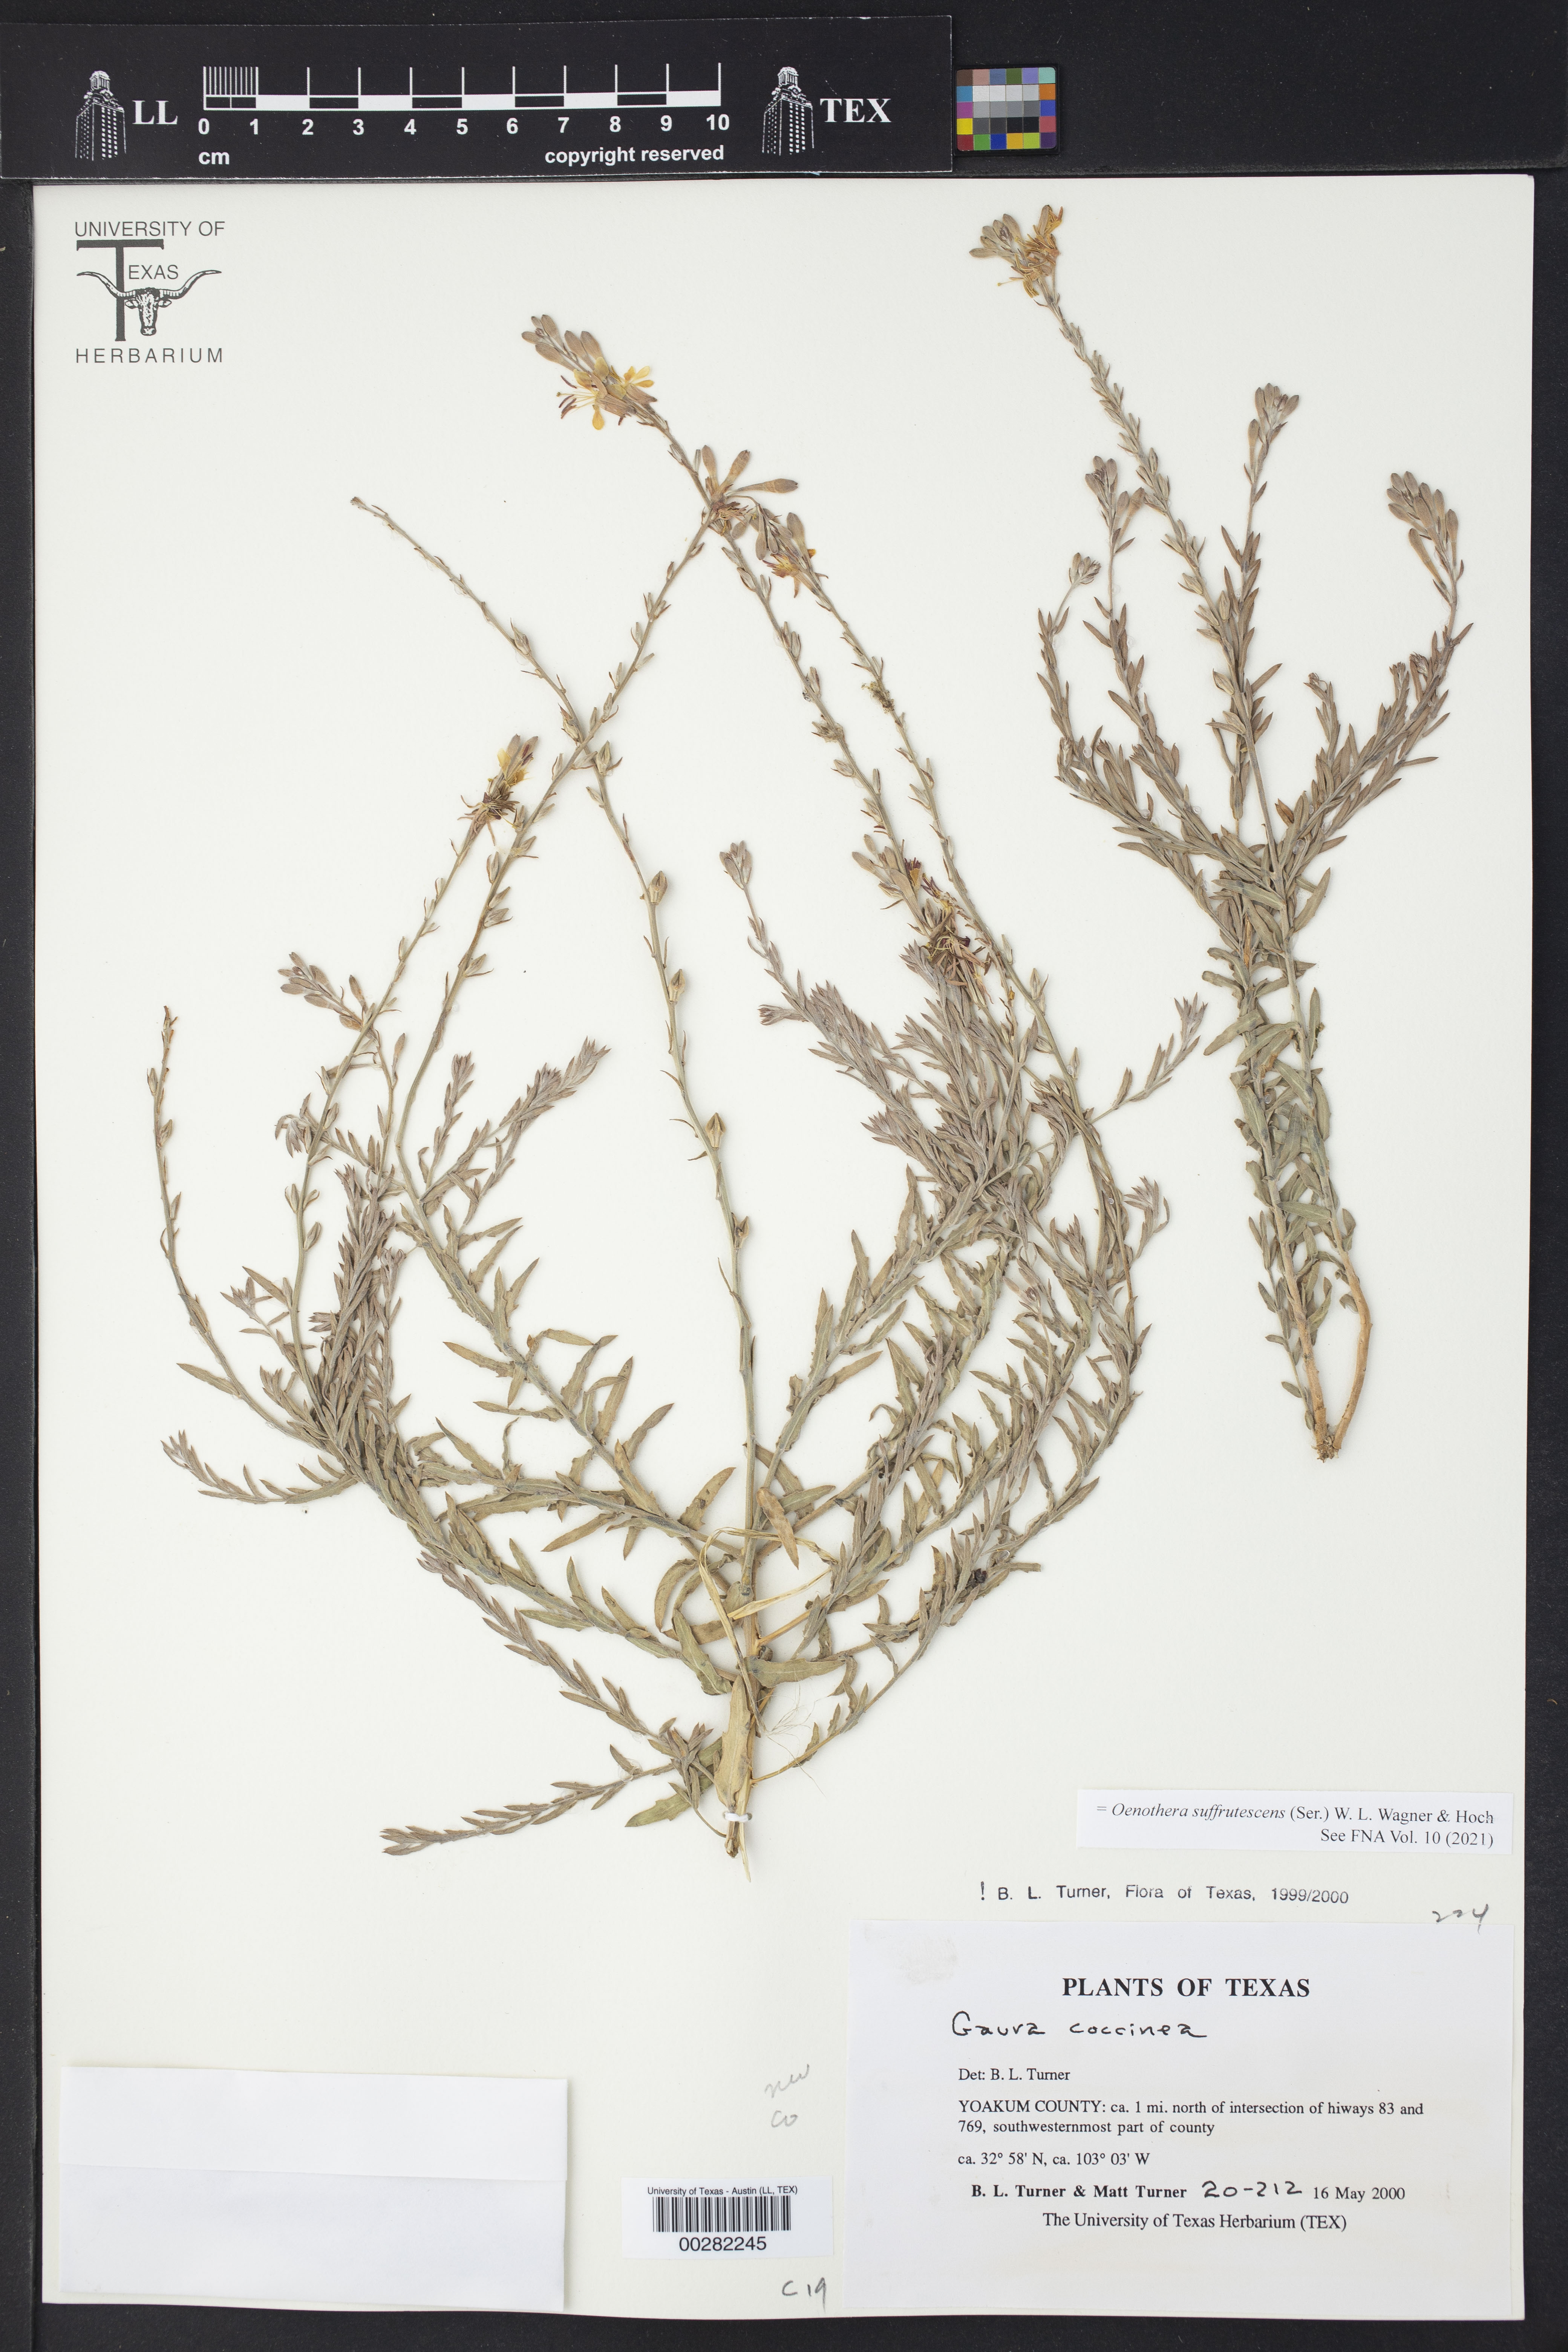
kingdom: Plantae
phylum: Tracheophyta
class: Magnoliopsida
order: Myrtales
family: Onagraceae
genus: Oenothera
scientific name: Oenothera suffrutescens
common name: Scarlet beeblossom
